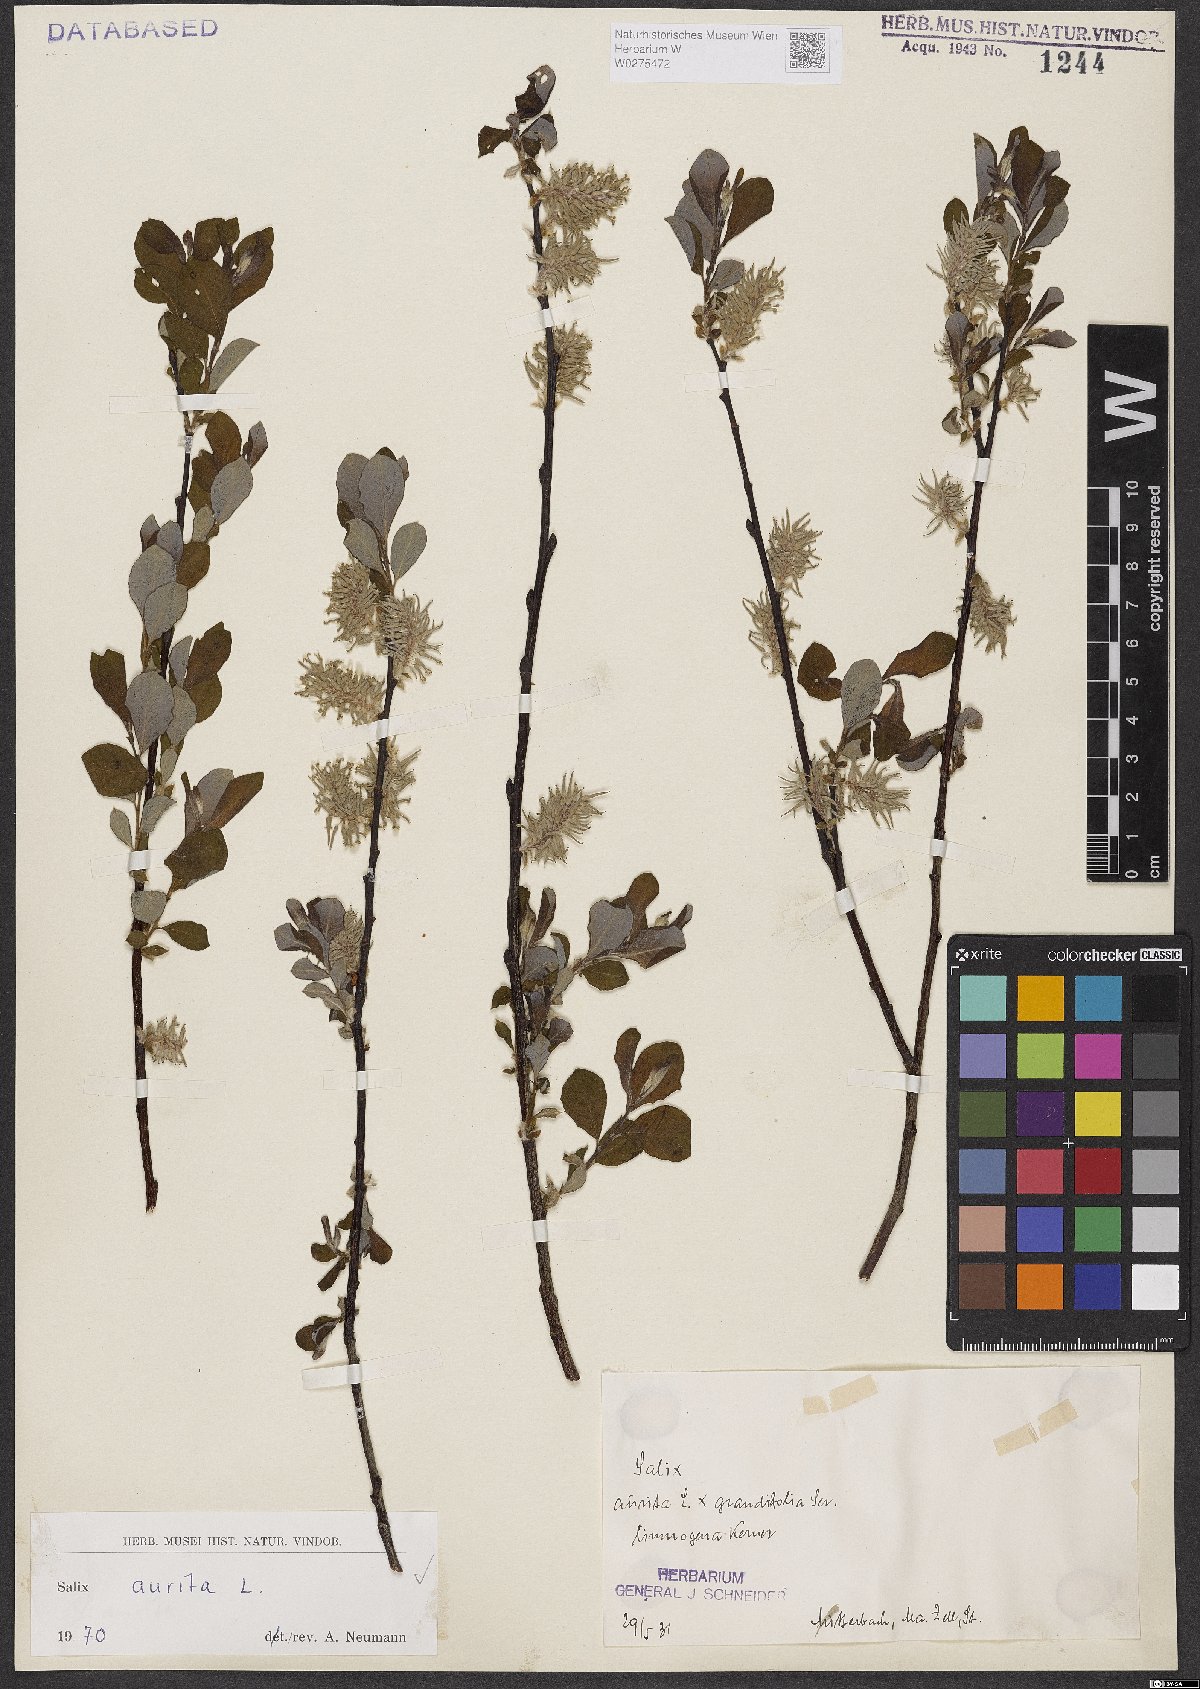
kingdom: Plantae
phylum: Tracheophyta
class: Magnoliopsida
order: Malpighiales
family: Salicaceae
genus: Salix
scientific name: Salix aurita
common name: Eared willow
